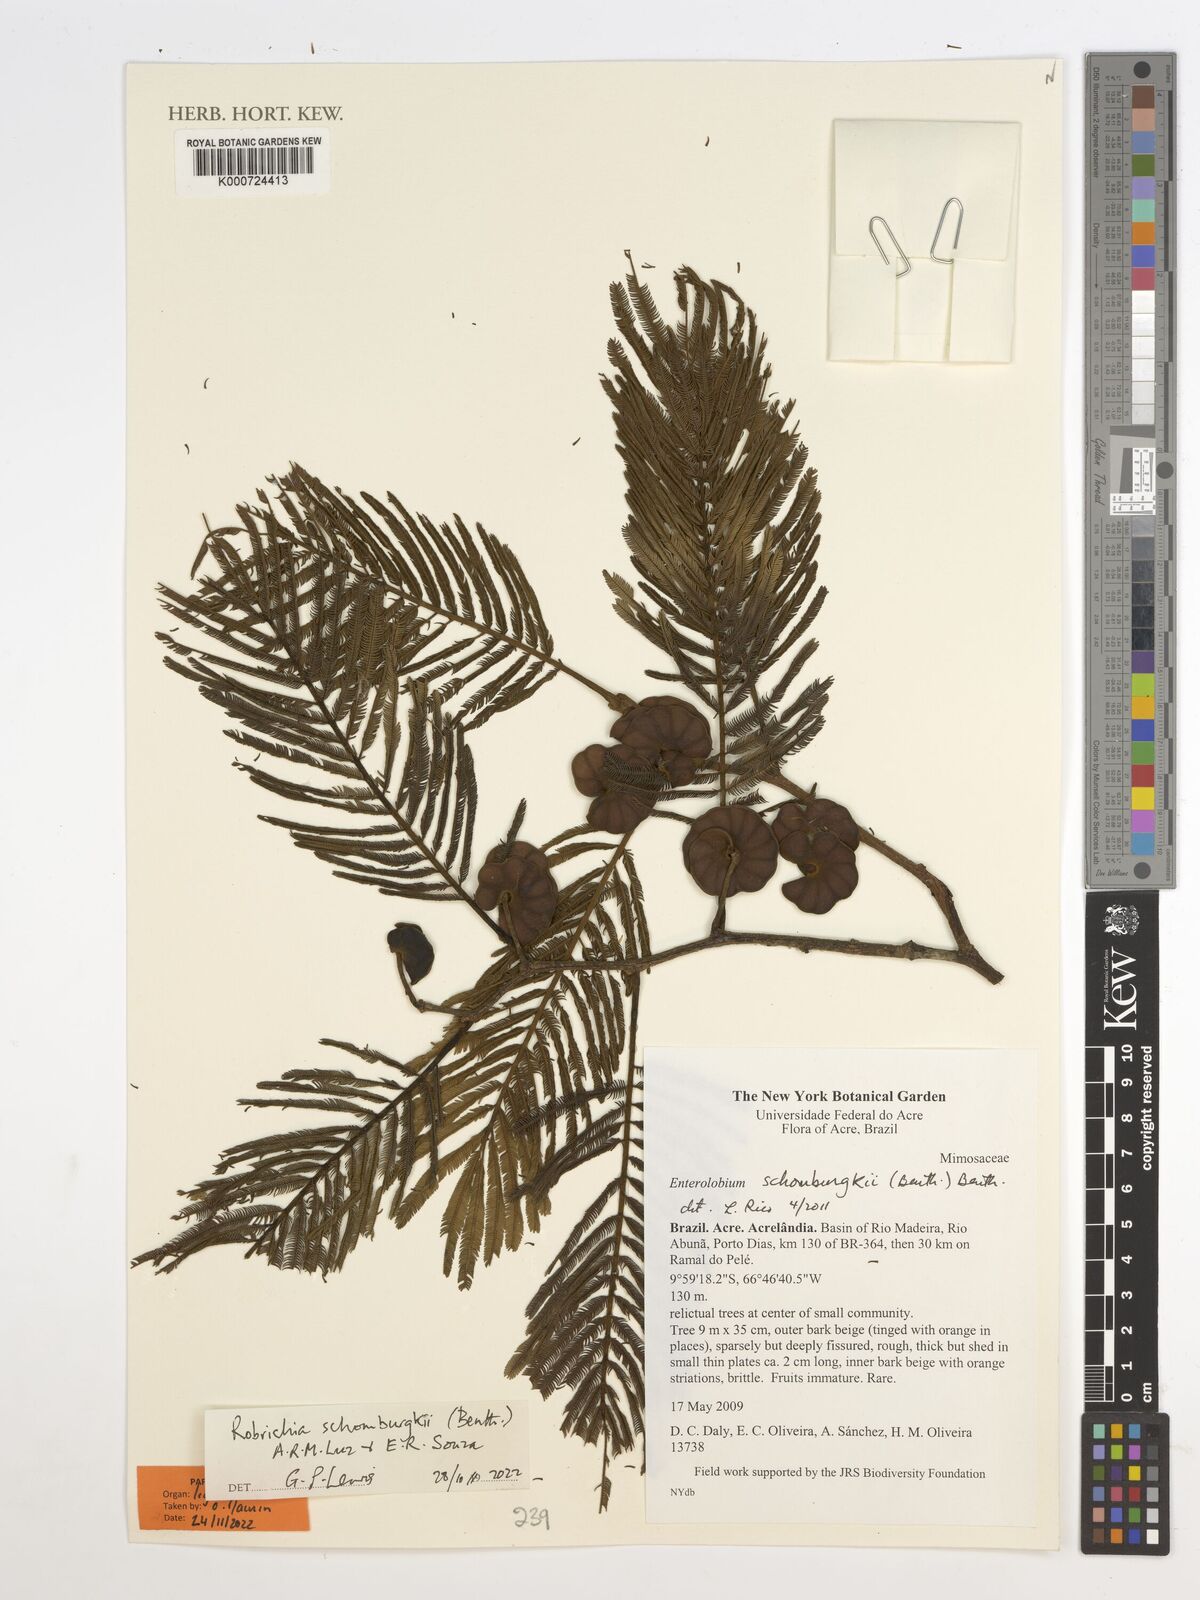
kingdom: Plantae
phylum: Tracheophyta
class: Magnoliopsida
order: Fabales
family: Fabaceae
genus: Enterolobium
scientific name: Enterolobium schomburgkii
